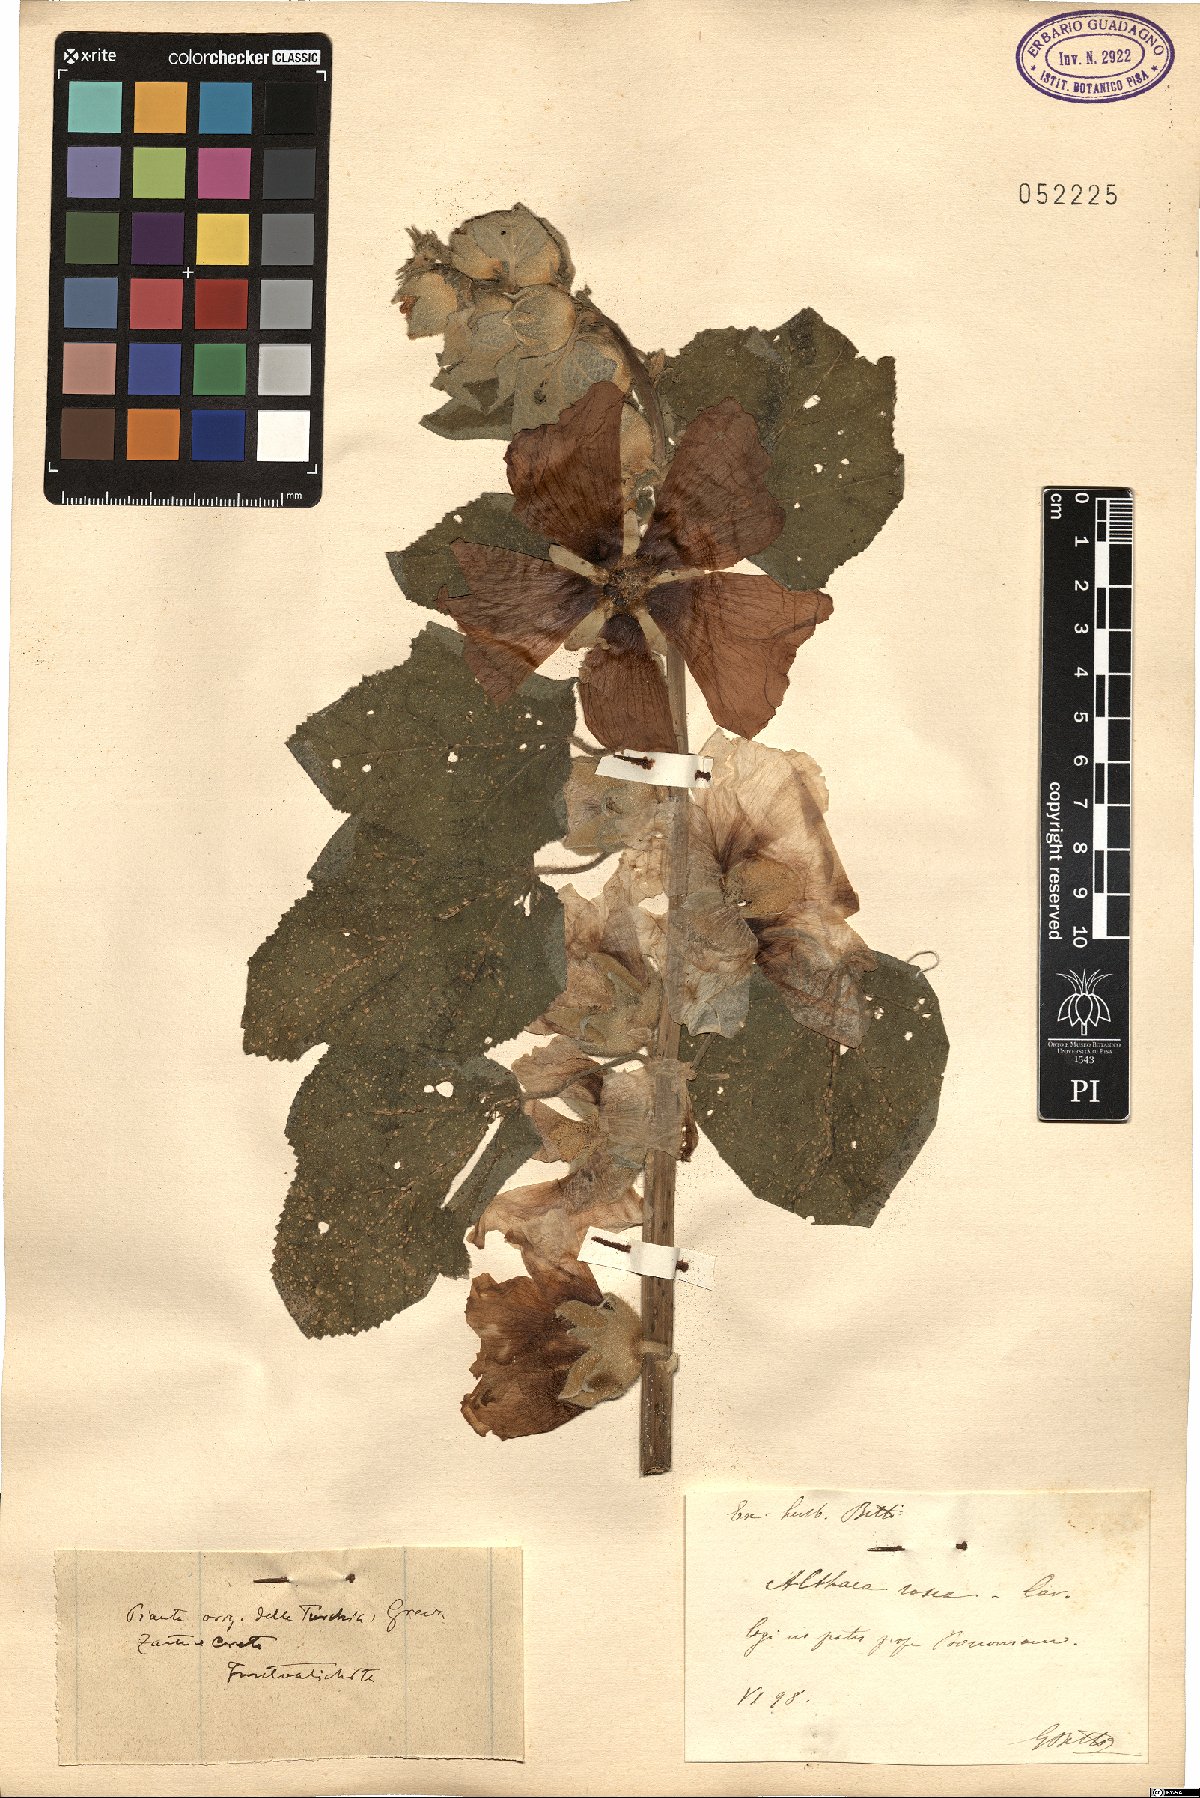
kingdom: Plantae
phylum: Tracheophyta
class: Magnoliopsida
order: Malvales
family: Malvaceae
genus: Alcea
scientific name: Alcea rosea
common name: Hollyhock
